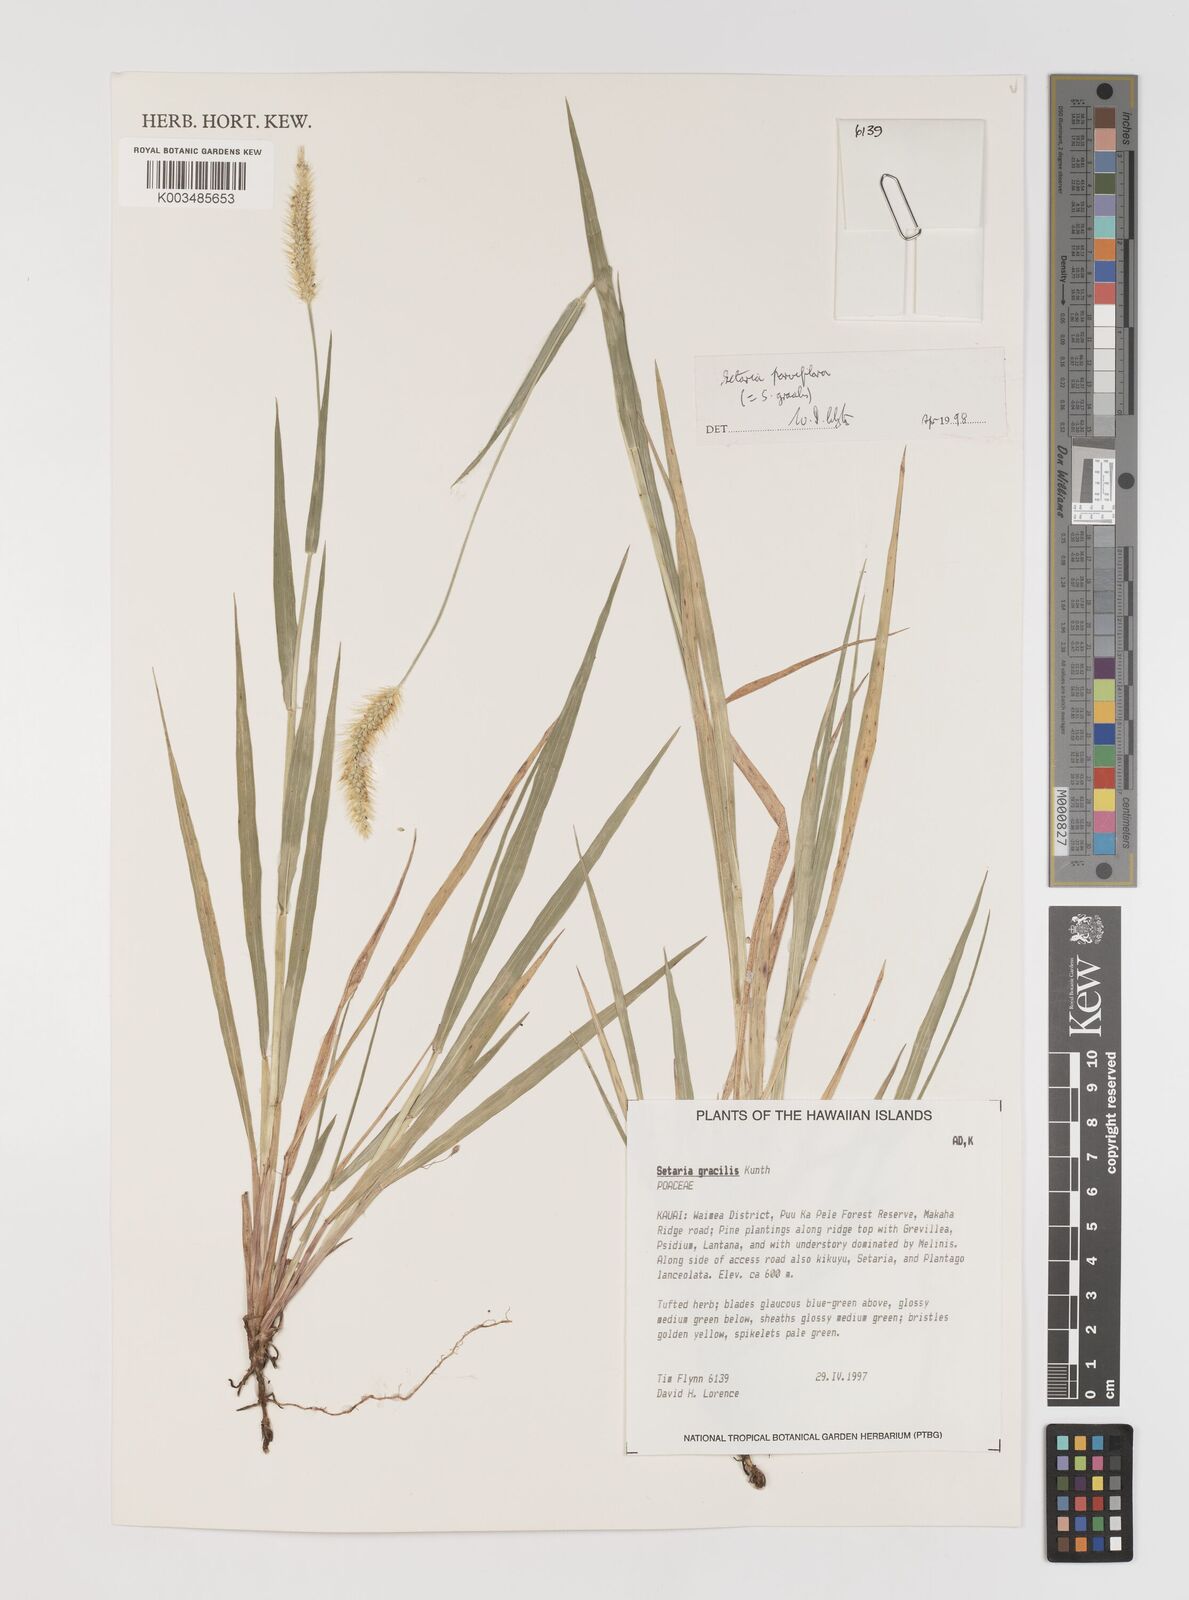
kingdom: Plantae
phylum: Tracheophyta
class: Liliopsida
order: Poales
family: Poaceae
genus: Setaria
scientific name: Setaria parviflora
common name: Knotroot bristle-grass
